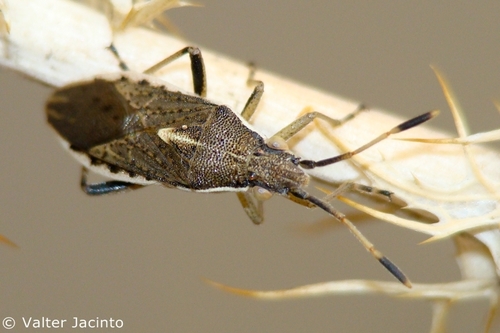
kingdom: Animalia
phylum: Arthropoda
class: Insecta
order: Hemiptera
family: Rhopalidae
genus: Maccevethus
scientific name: Maccevethus
